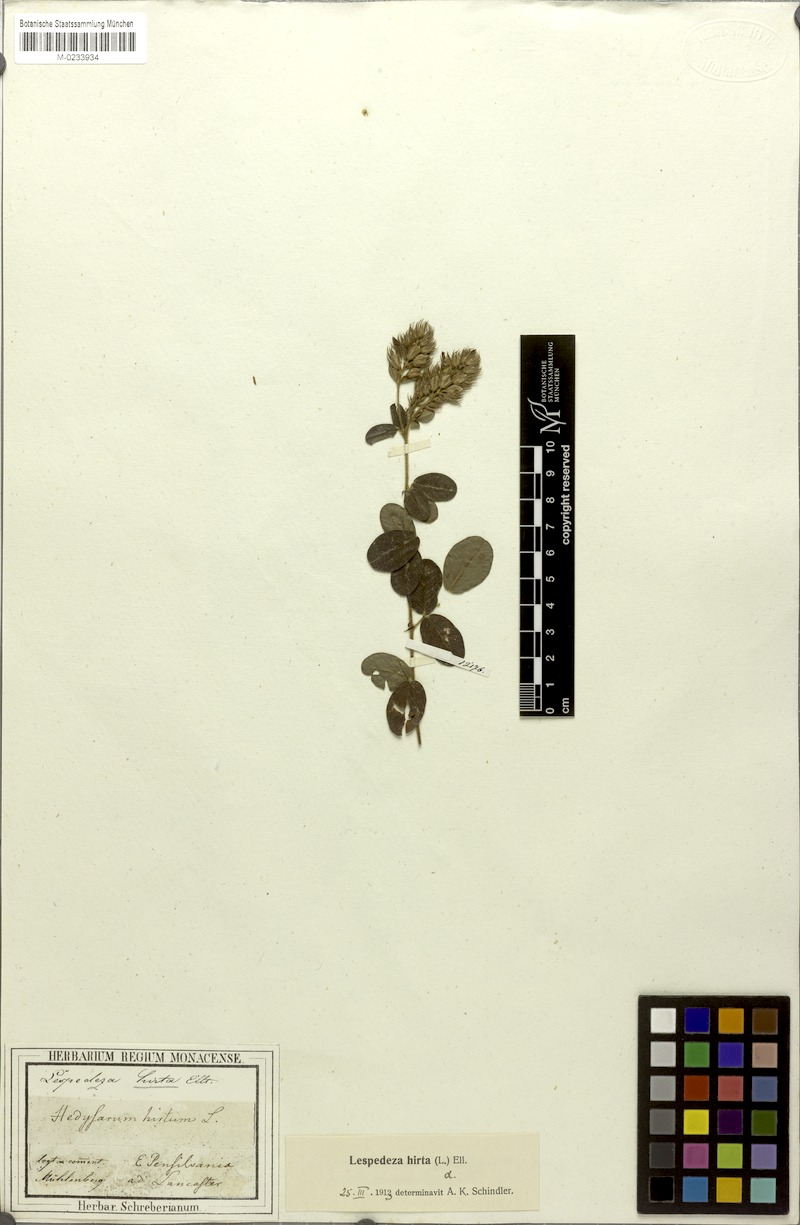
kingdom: Plantae
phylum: Tracheophyta
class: Magnoliopsida
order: Fabales
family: Fabaceae
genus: Lespedeza
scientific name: Lespedeza hirta
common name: Hairy lespedeza
